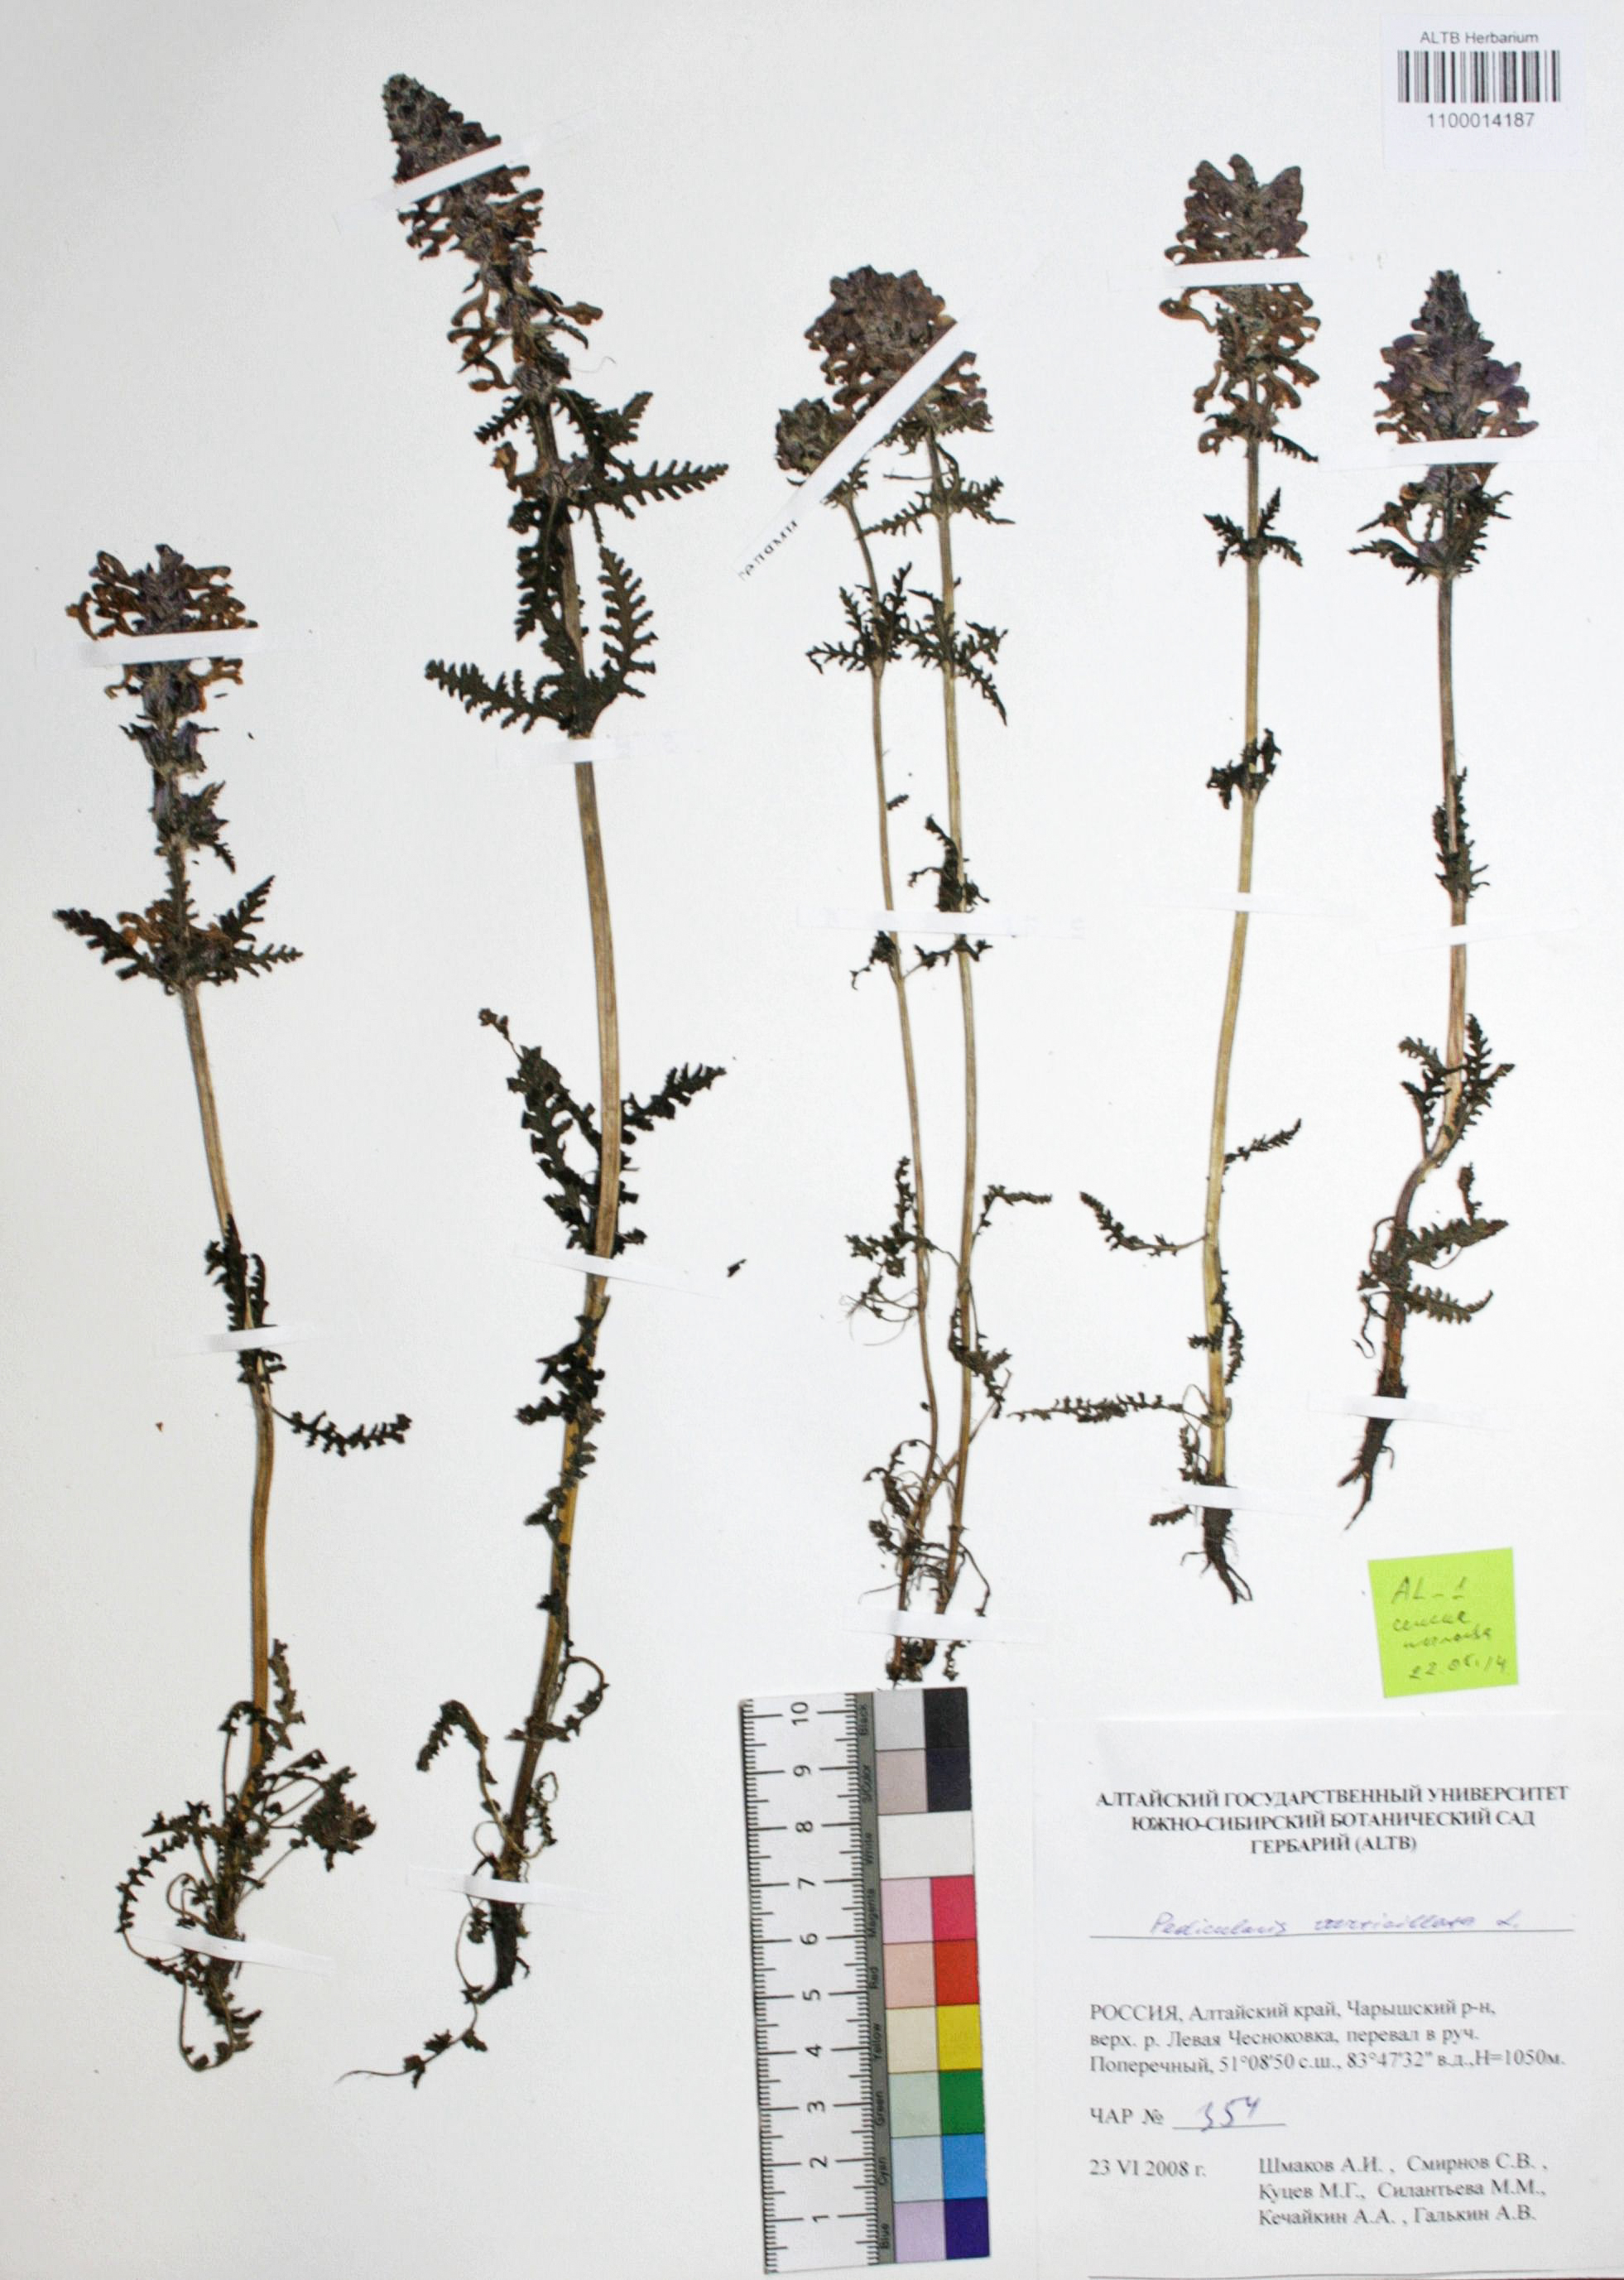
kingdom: Plantae
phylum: Tracheophyta
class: Magnoliopsida
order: Lamiales
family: Orobanchaceae
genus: Pedicularis
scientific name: Pedicularis verticillata
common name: Whorled lousewort
